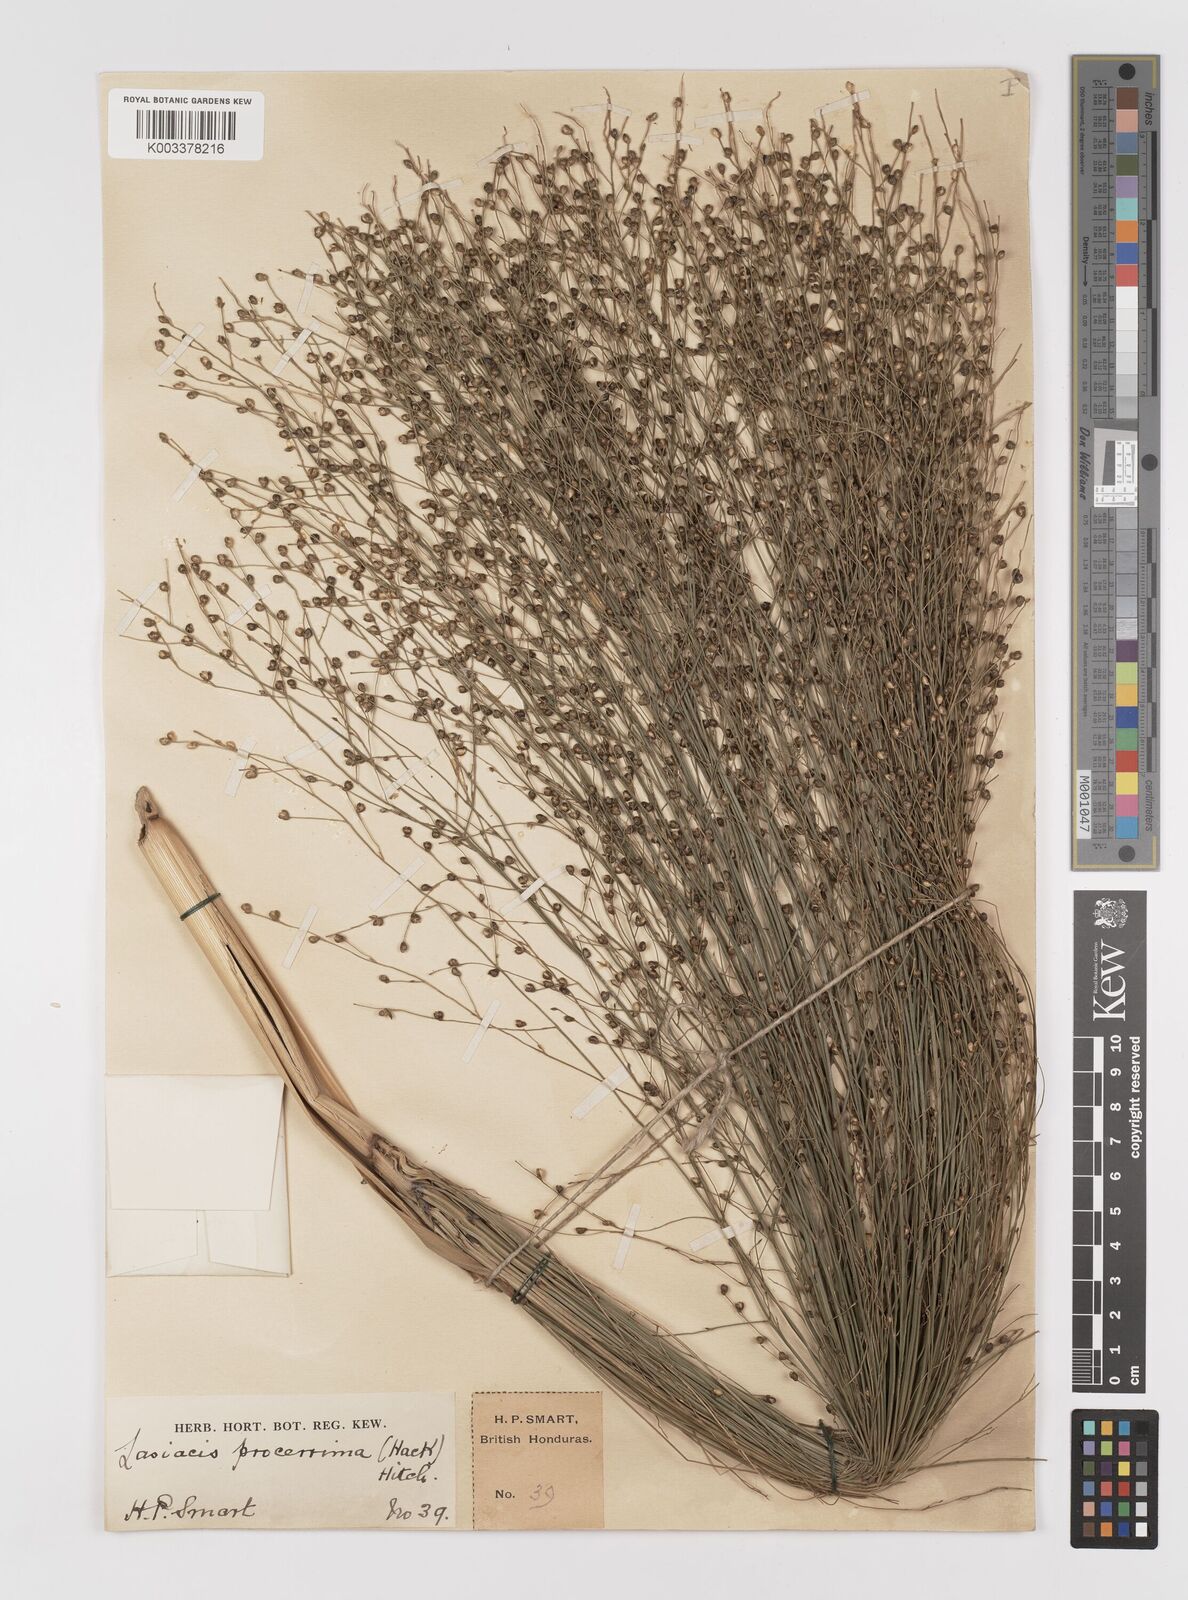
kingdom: Plantae
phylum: Tracheophyta
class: Liliopsida
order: Poales
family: Poaceae
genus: Lasiacis
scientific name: Lasiacis procerrima
